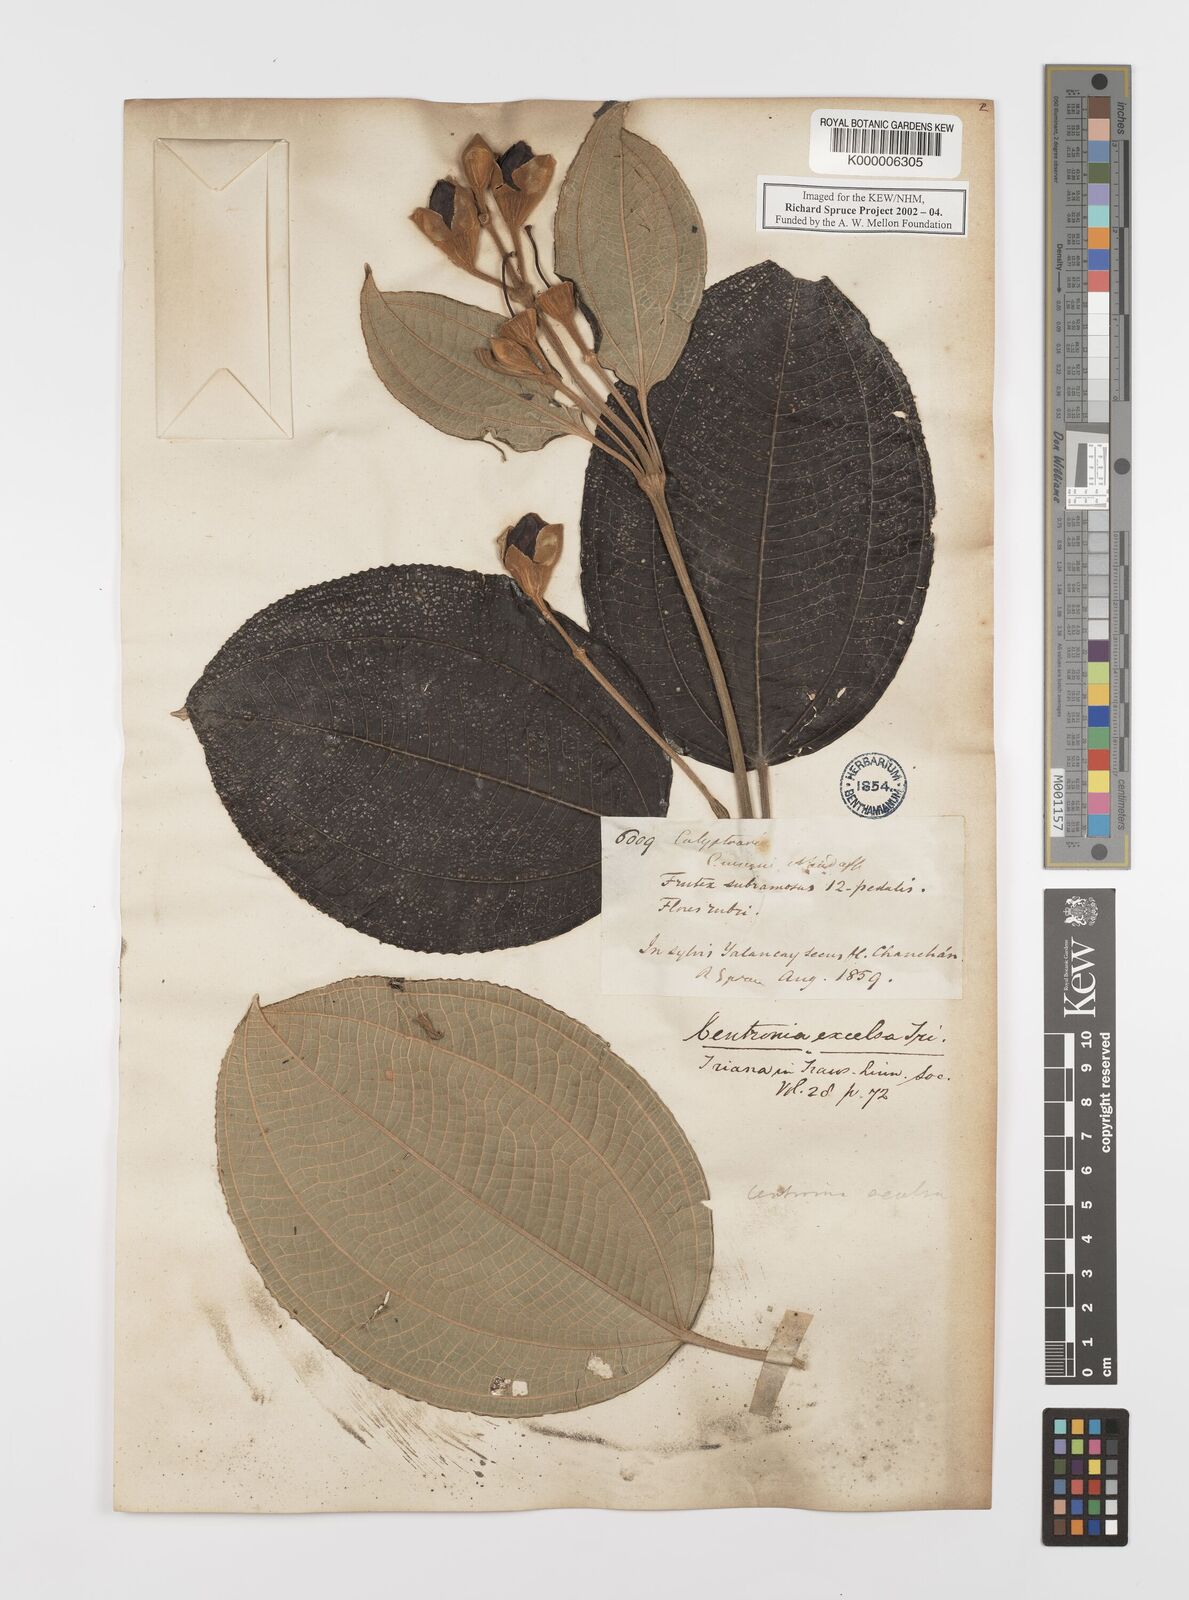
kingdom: Plantae
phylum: Tracheophyta
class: Magnoliopsida
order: Myrtales
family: Melastomataceae
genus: Meriania
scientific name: Meriania tomentosa
